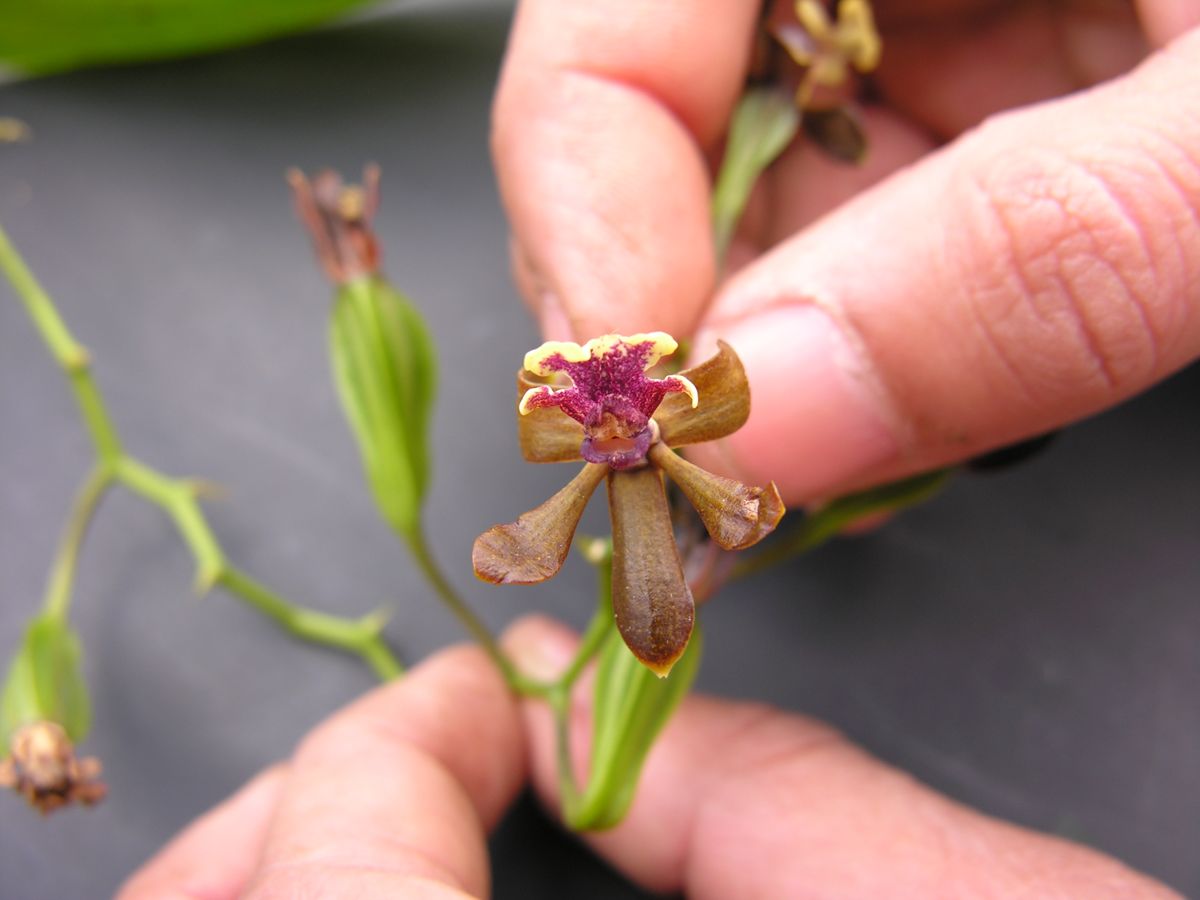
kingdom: Plantae
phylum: Tracheophyta
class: Liliopsida
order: Asparagales
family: Orchidaceae
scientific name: Orchidaceae
